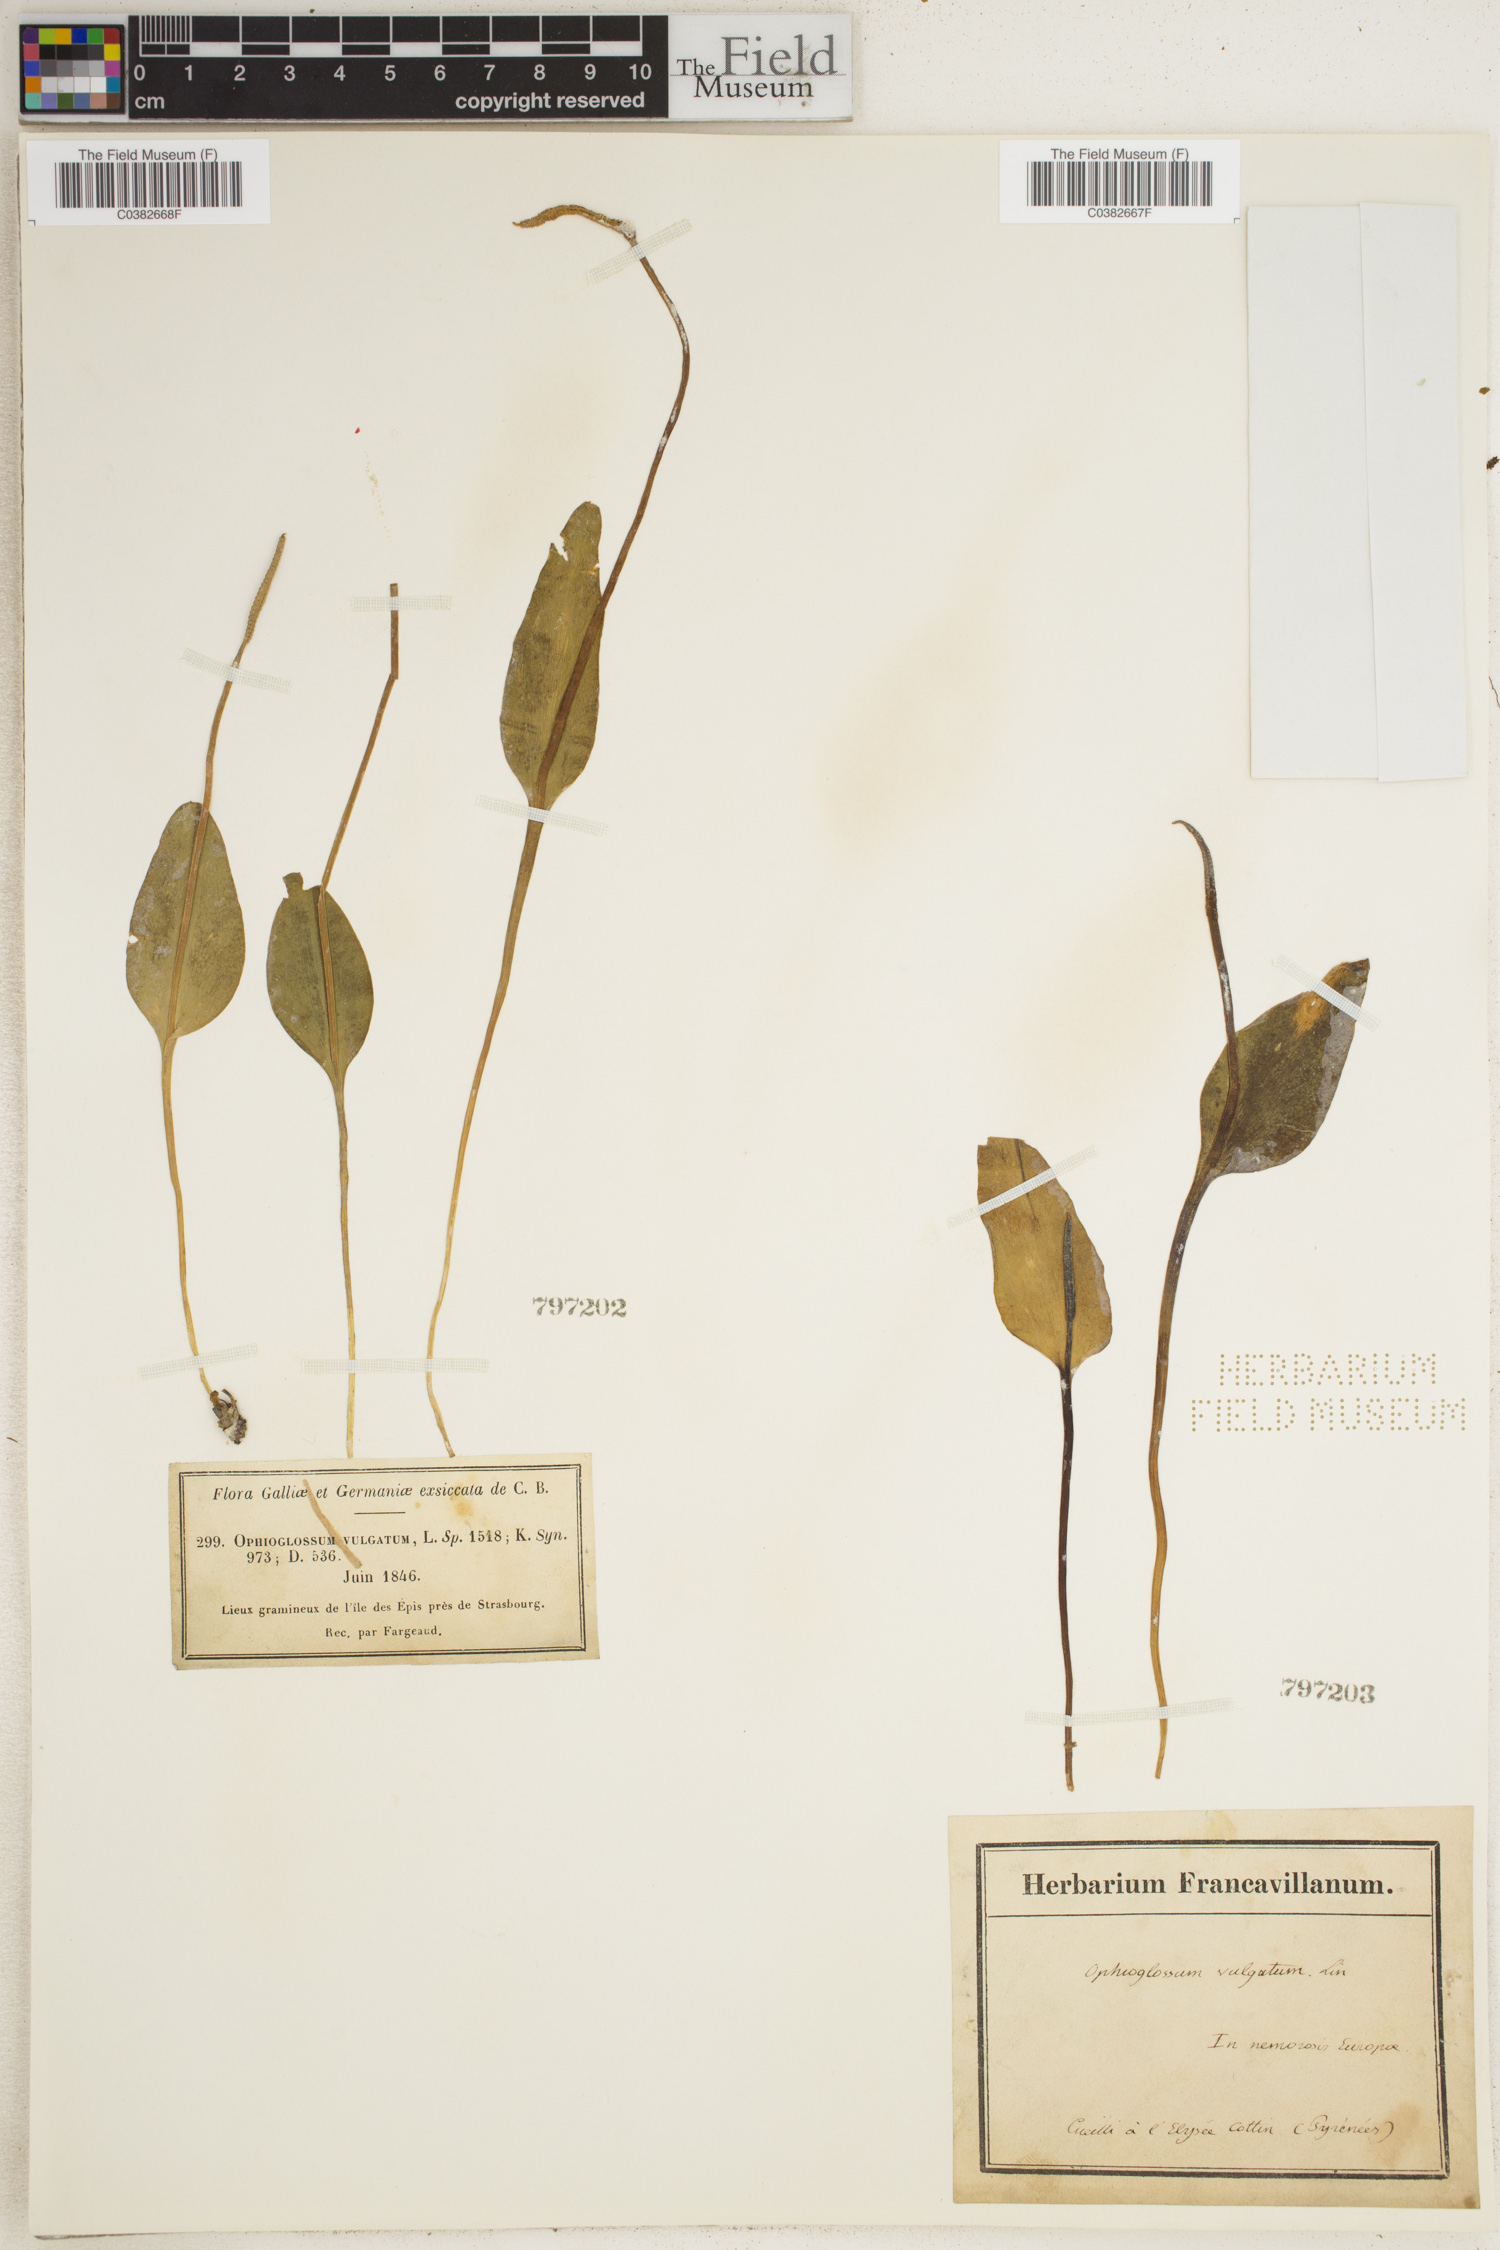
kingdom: Plantae
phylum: Tracheophyta
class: Polypodiopsida
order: Ophioglossales
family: Ophioglossaceae
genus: Ophioglossum
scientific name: Ophioglossum vulgatum
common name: Adder's-tongue
